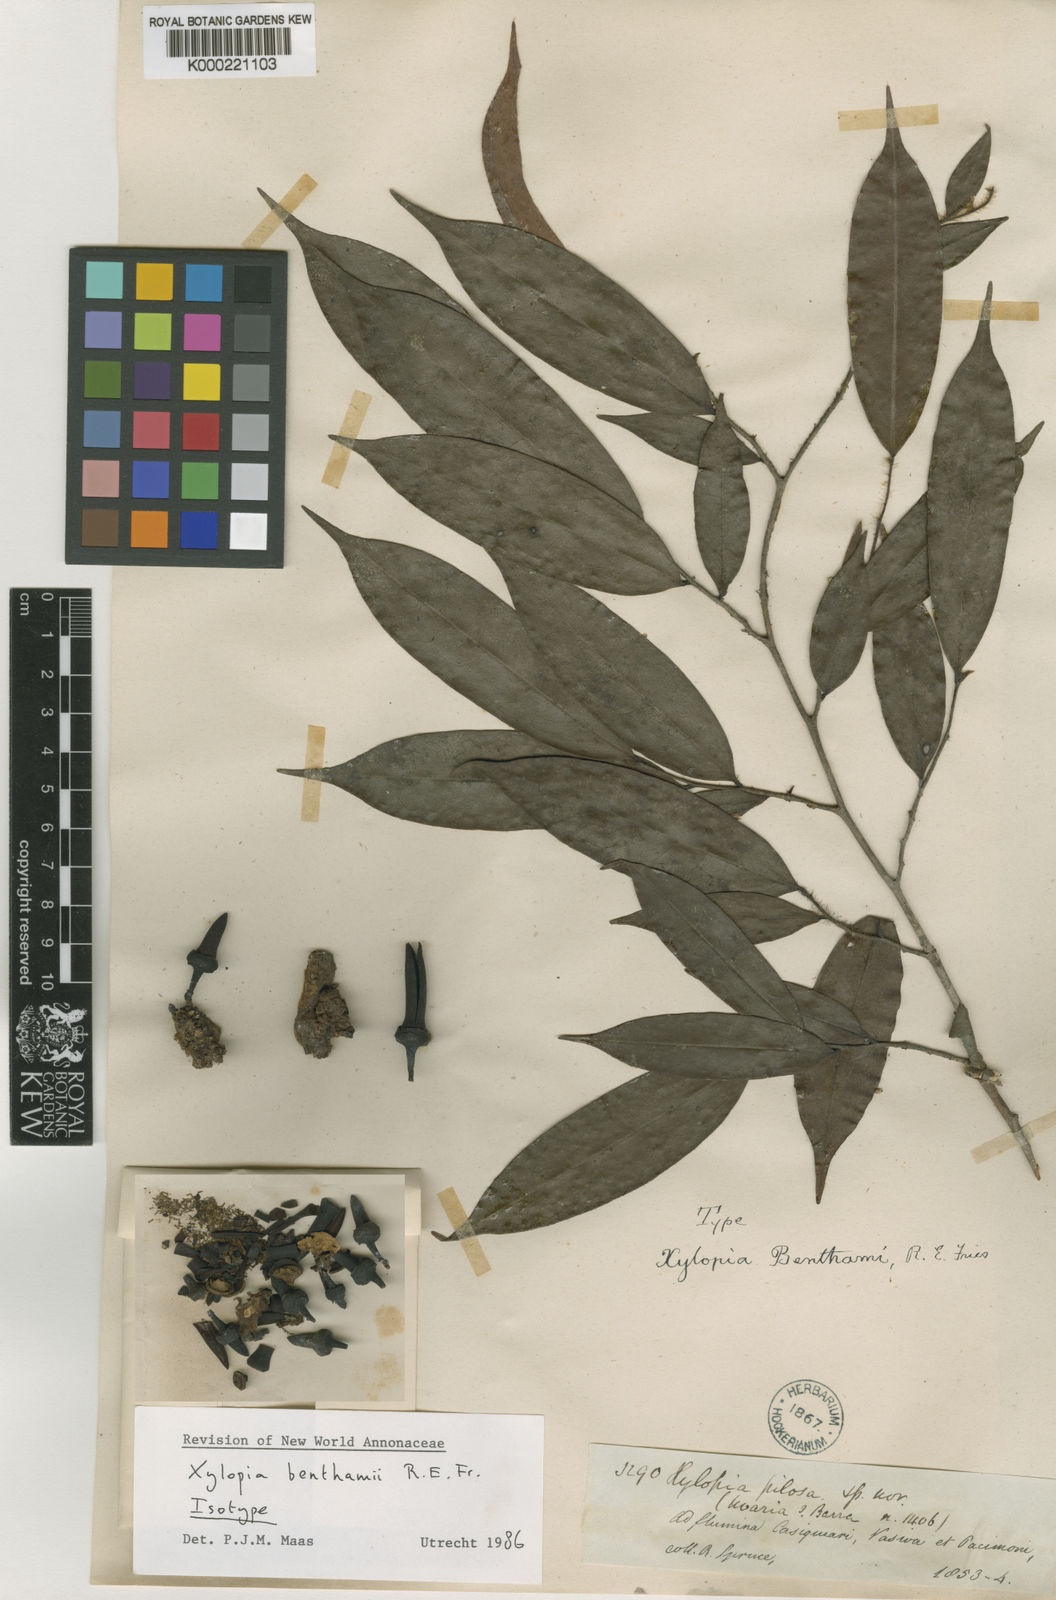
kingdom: Plantae
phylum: Tracheophyta
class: Magnoliopsida
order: Magnoliales
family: Annonaceae
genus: Xylopia
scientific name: Xylopia benthamii
